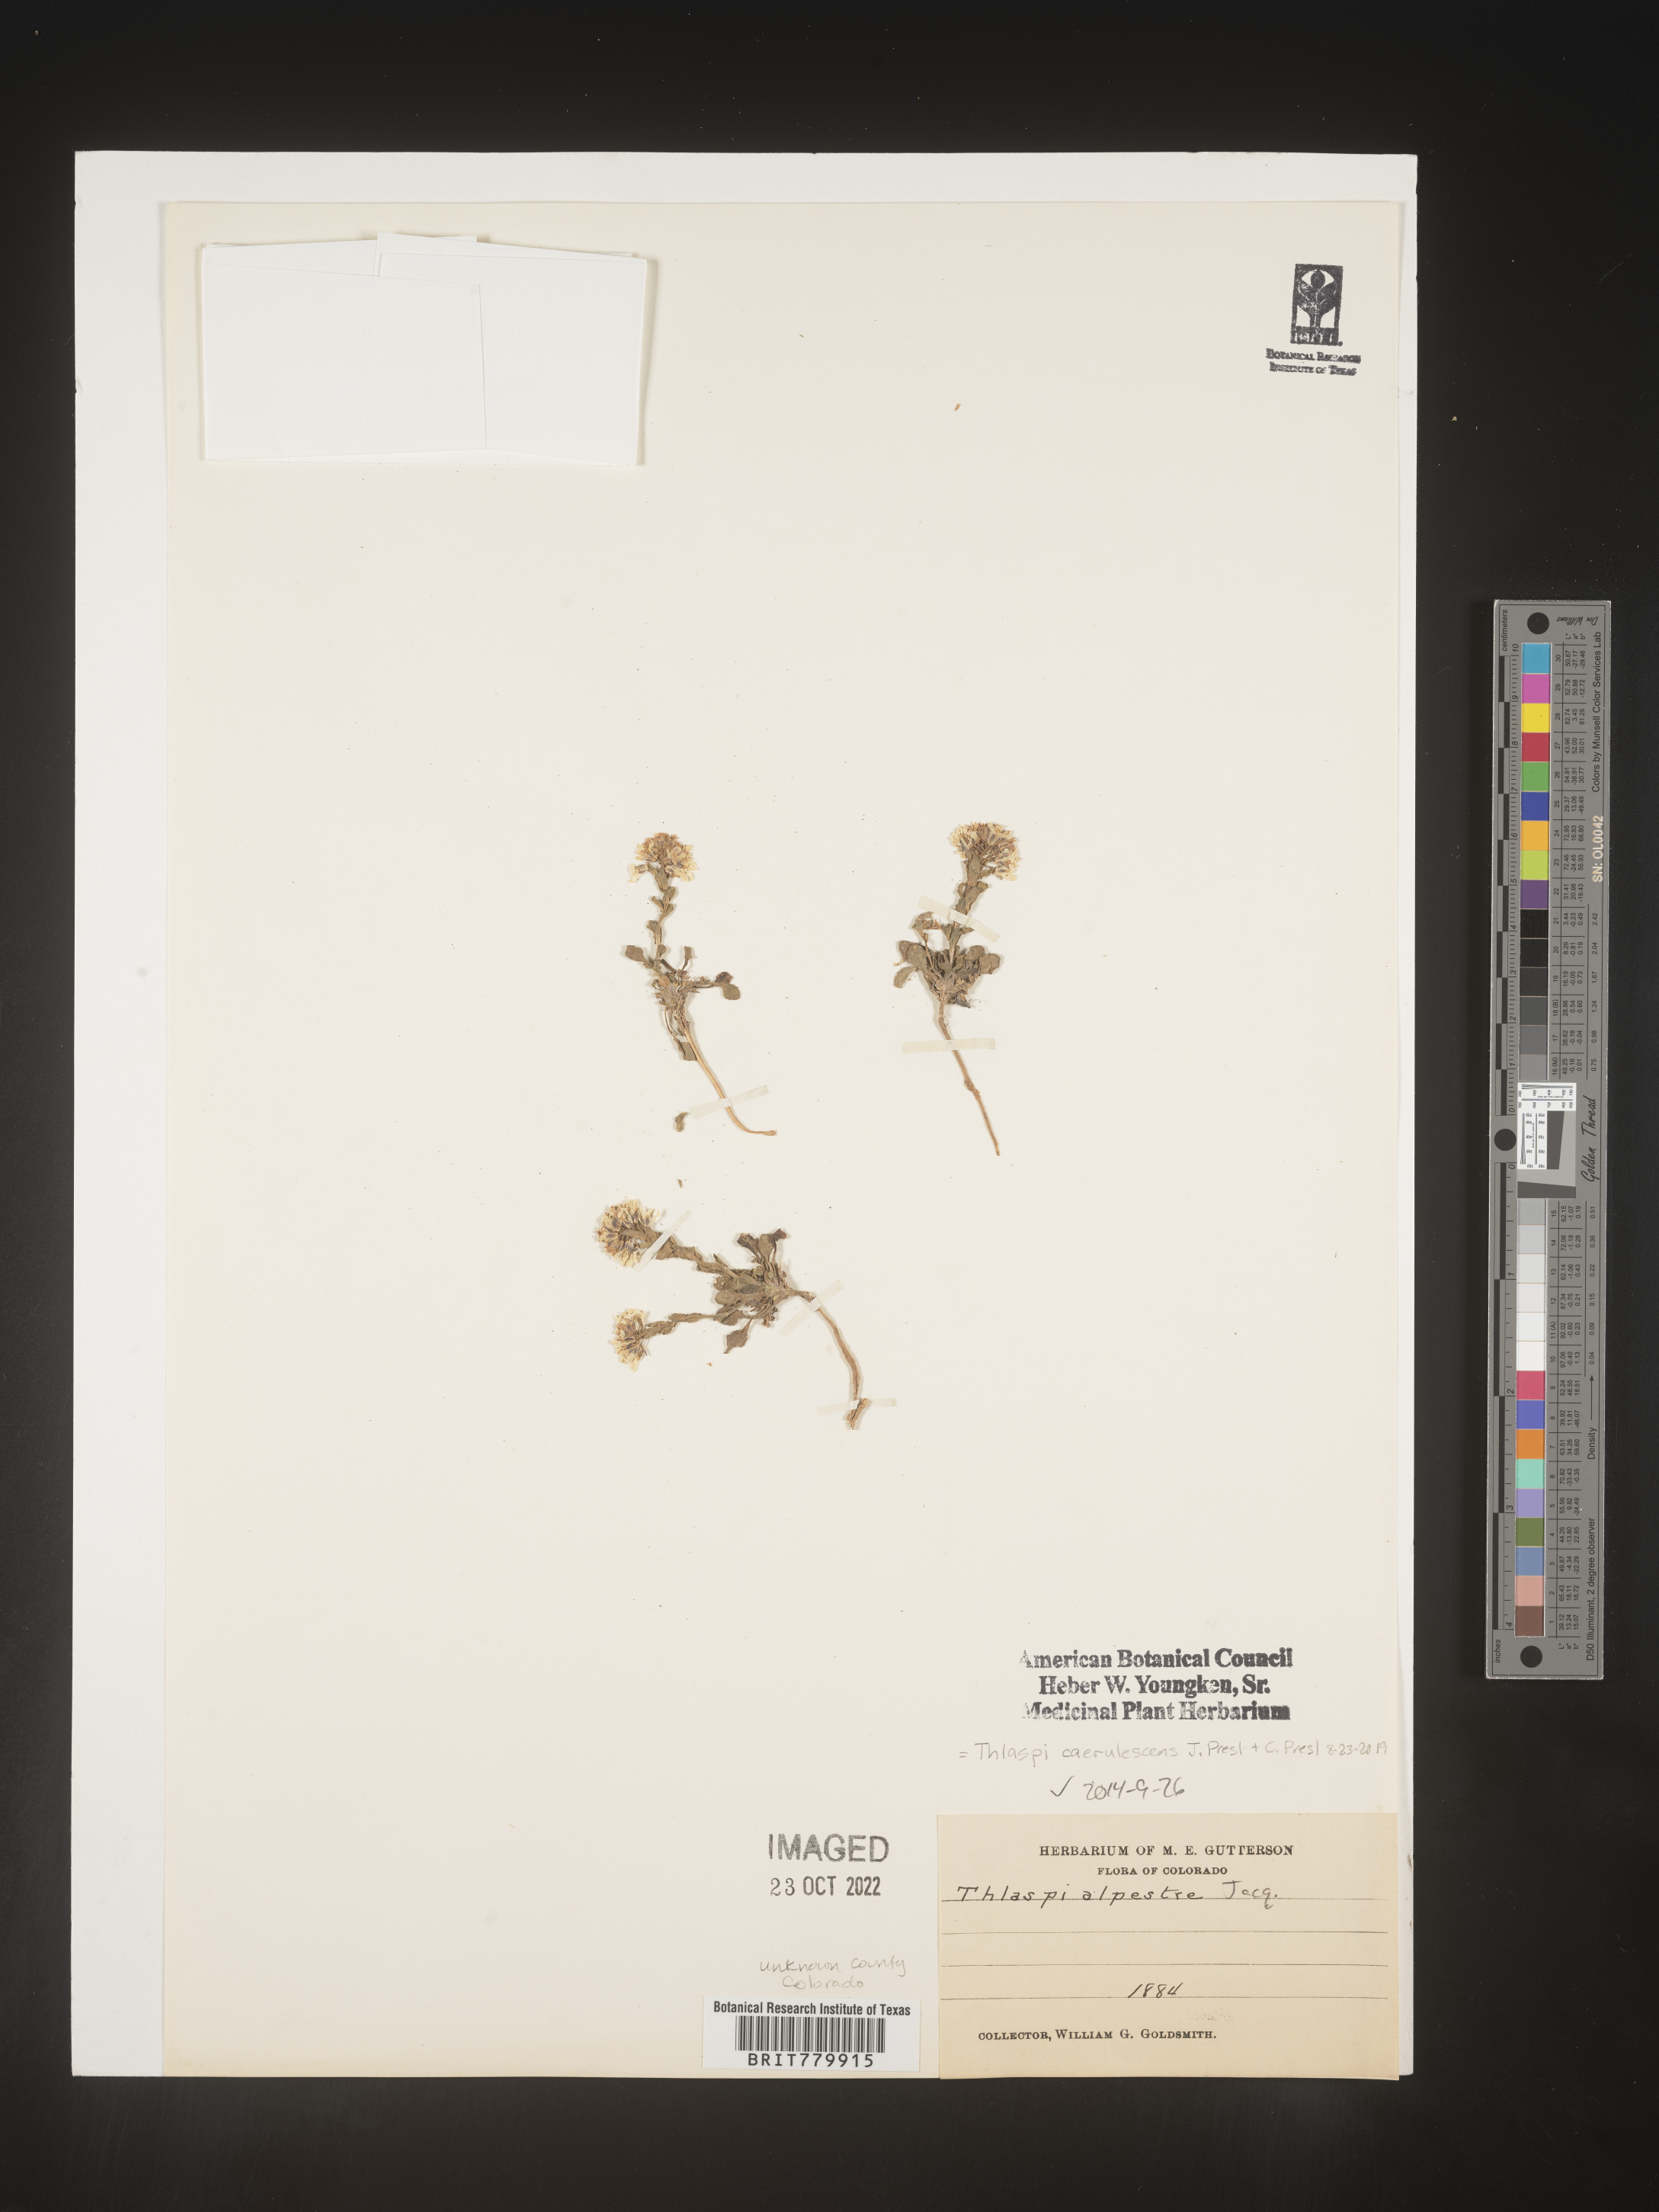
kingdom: Plantae
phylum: Tracheophyta
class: Magnoliopsida
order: Brassicales
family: Brassicaceae
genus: Thlaspi
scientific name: Thlaspi
